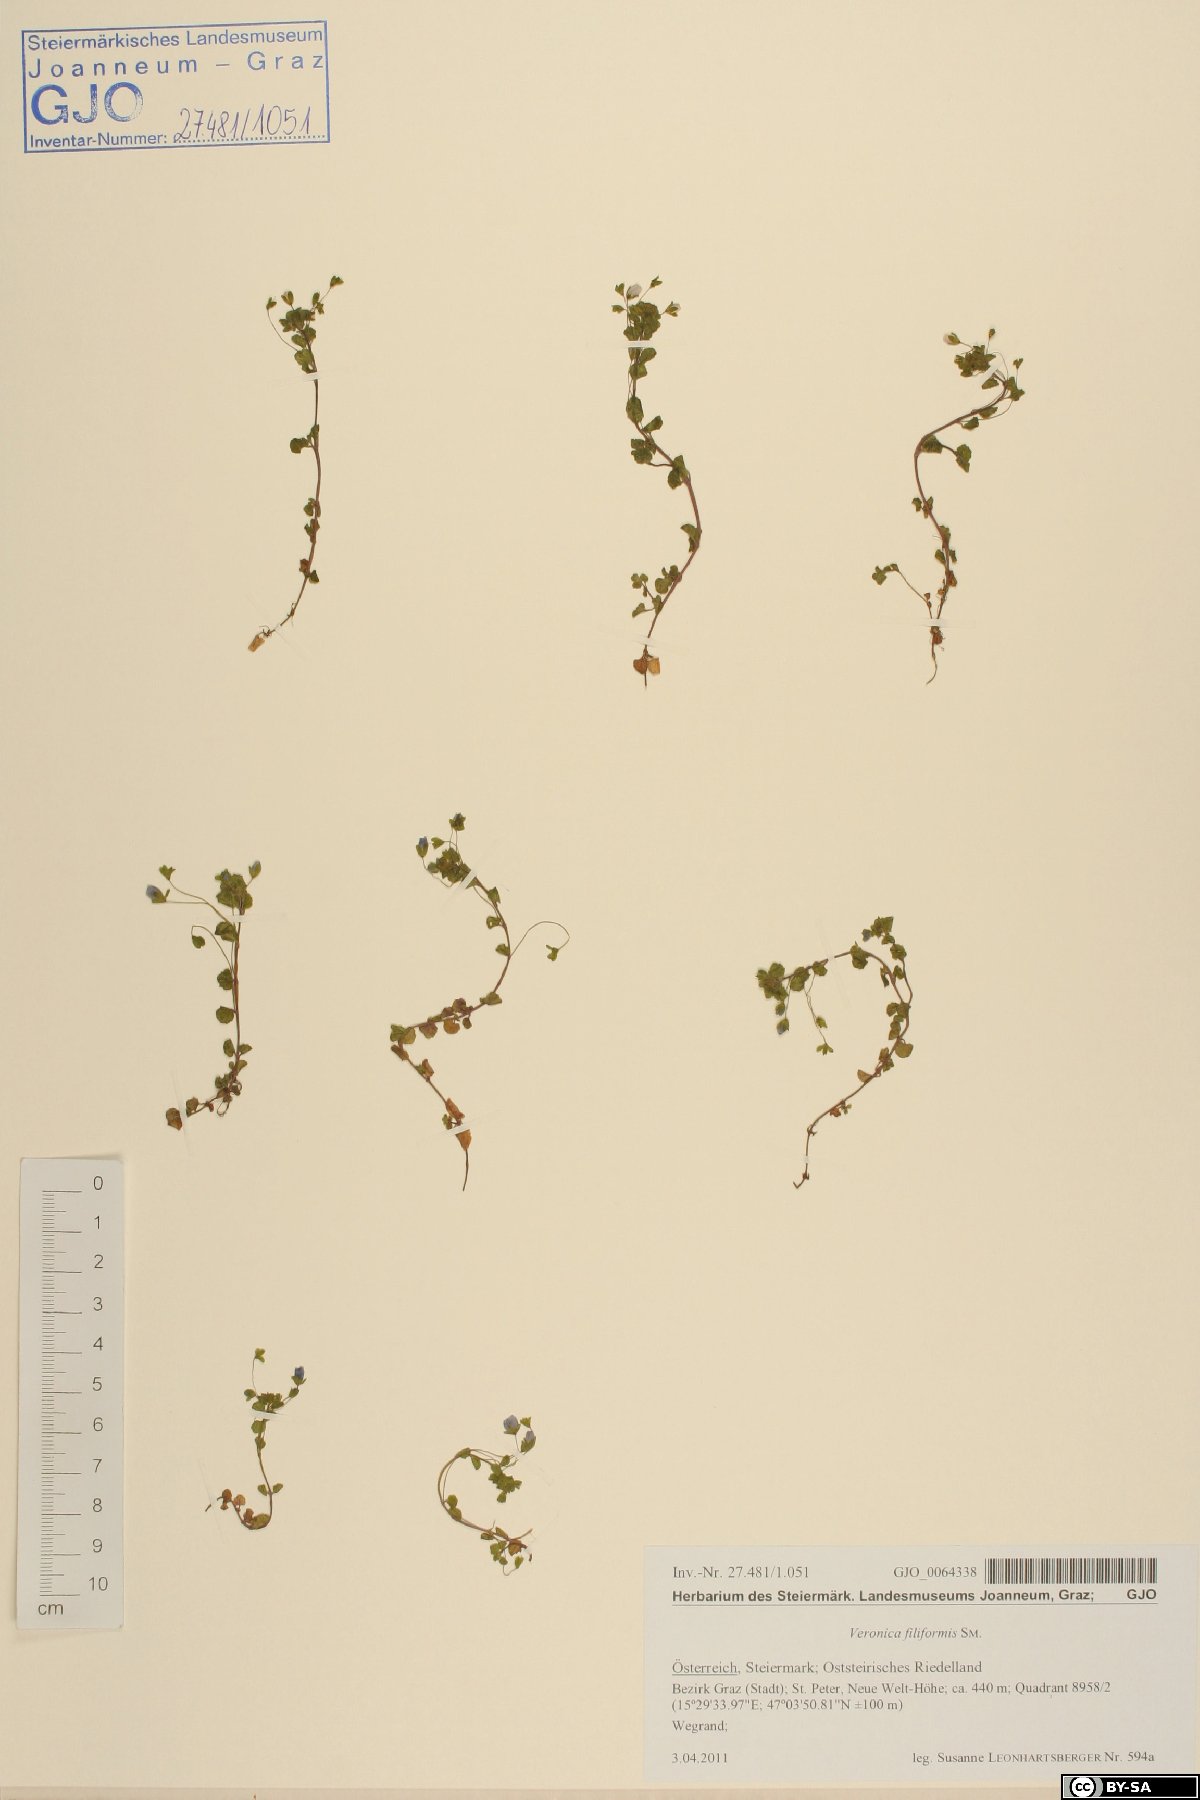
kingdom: Plantae
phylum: Tracheophyta
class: Magnoliopsida
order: Lamiales
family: Plantaginaceae
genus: Veronica
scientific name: Veronica filiformis
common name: Slender speedwell
